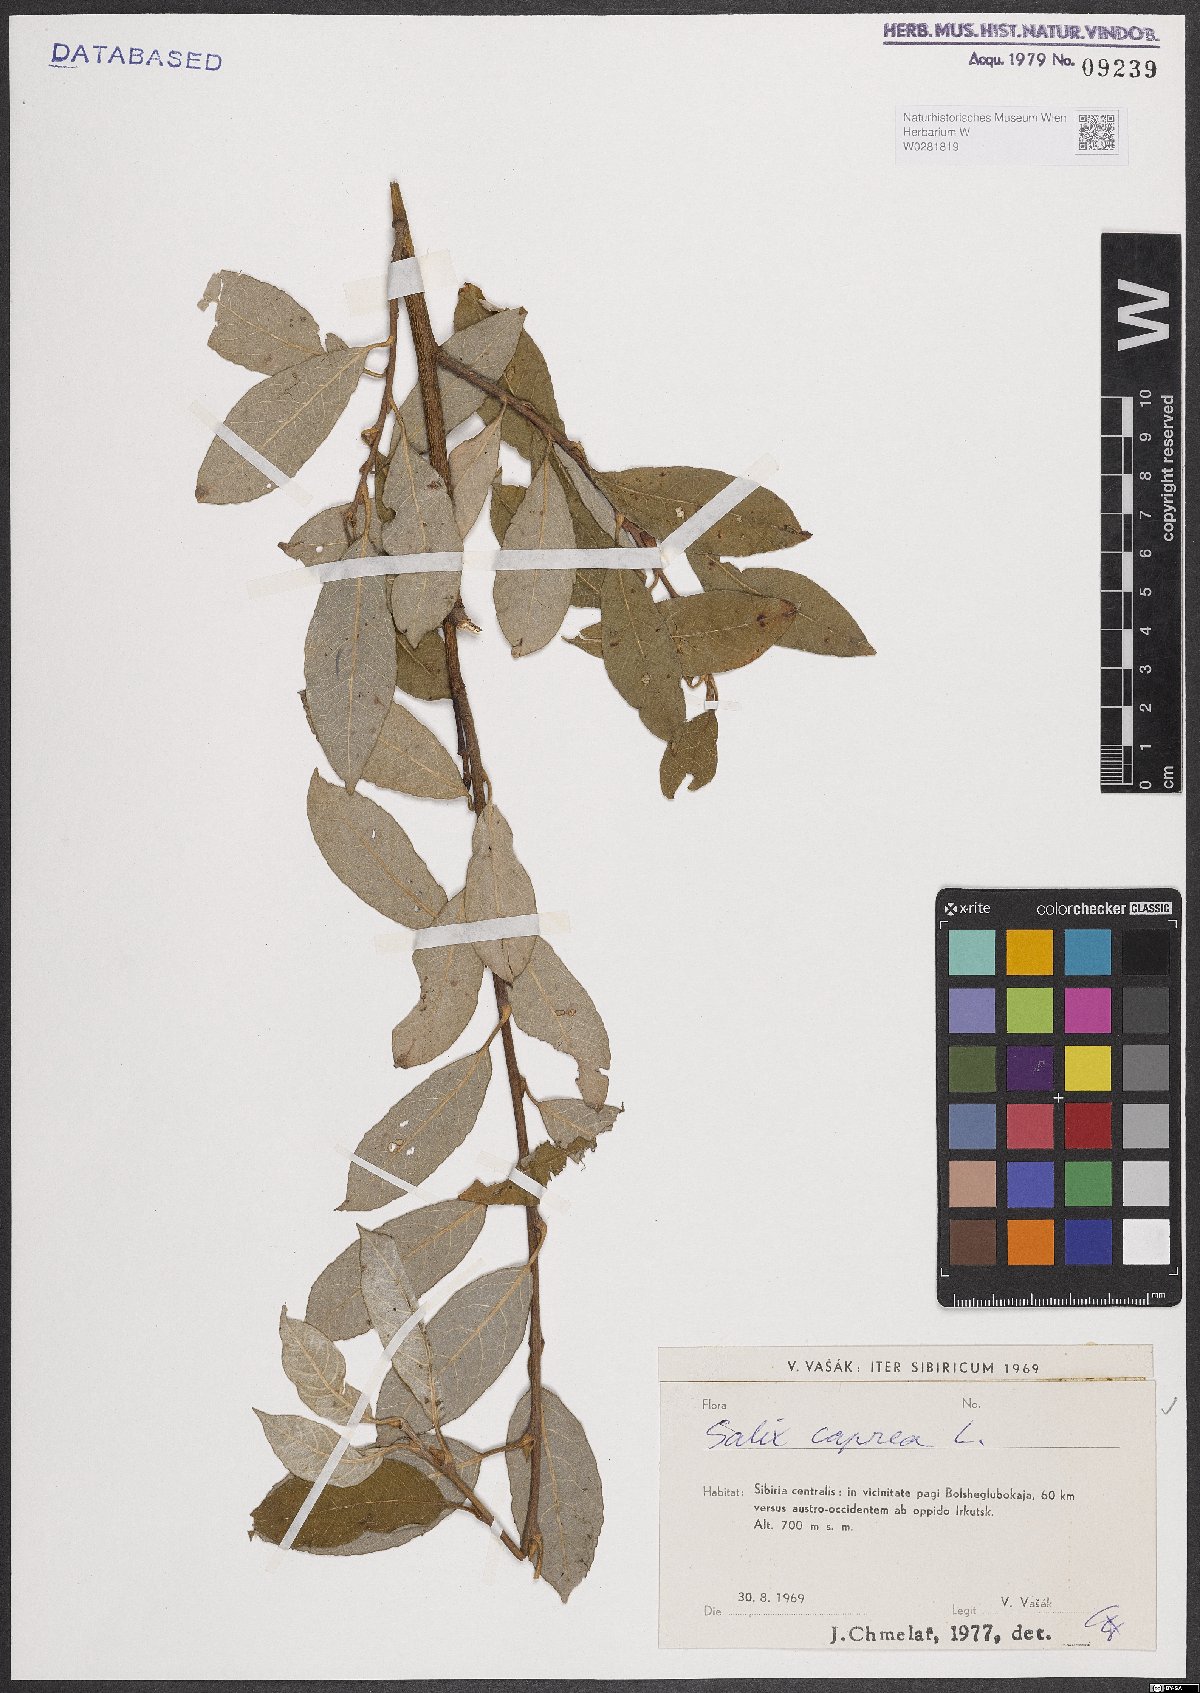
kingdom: Plantae
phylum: Tracheophyta
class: Magnoliopsida
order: Malpighiales
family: Salicaceae
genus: Salix
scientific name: Salix caprea
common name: Goat willow
